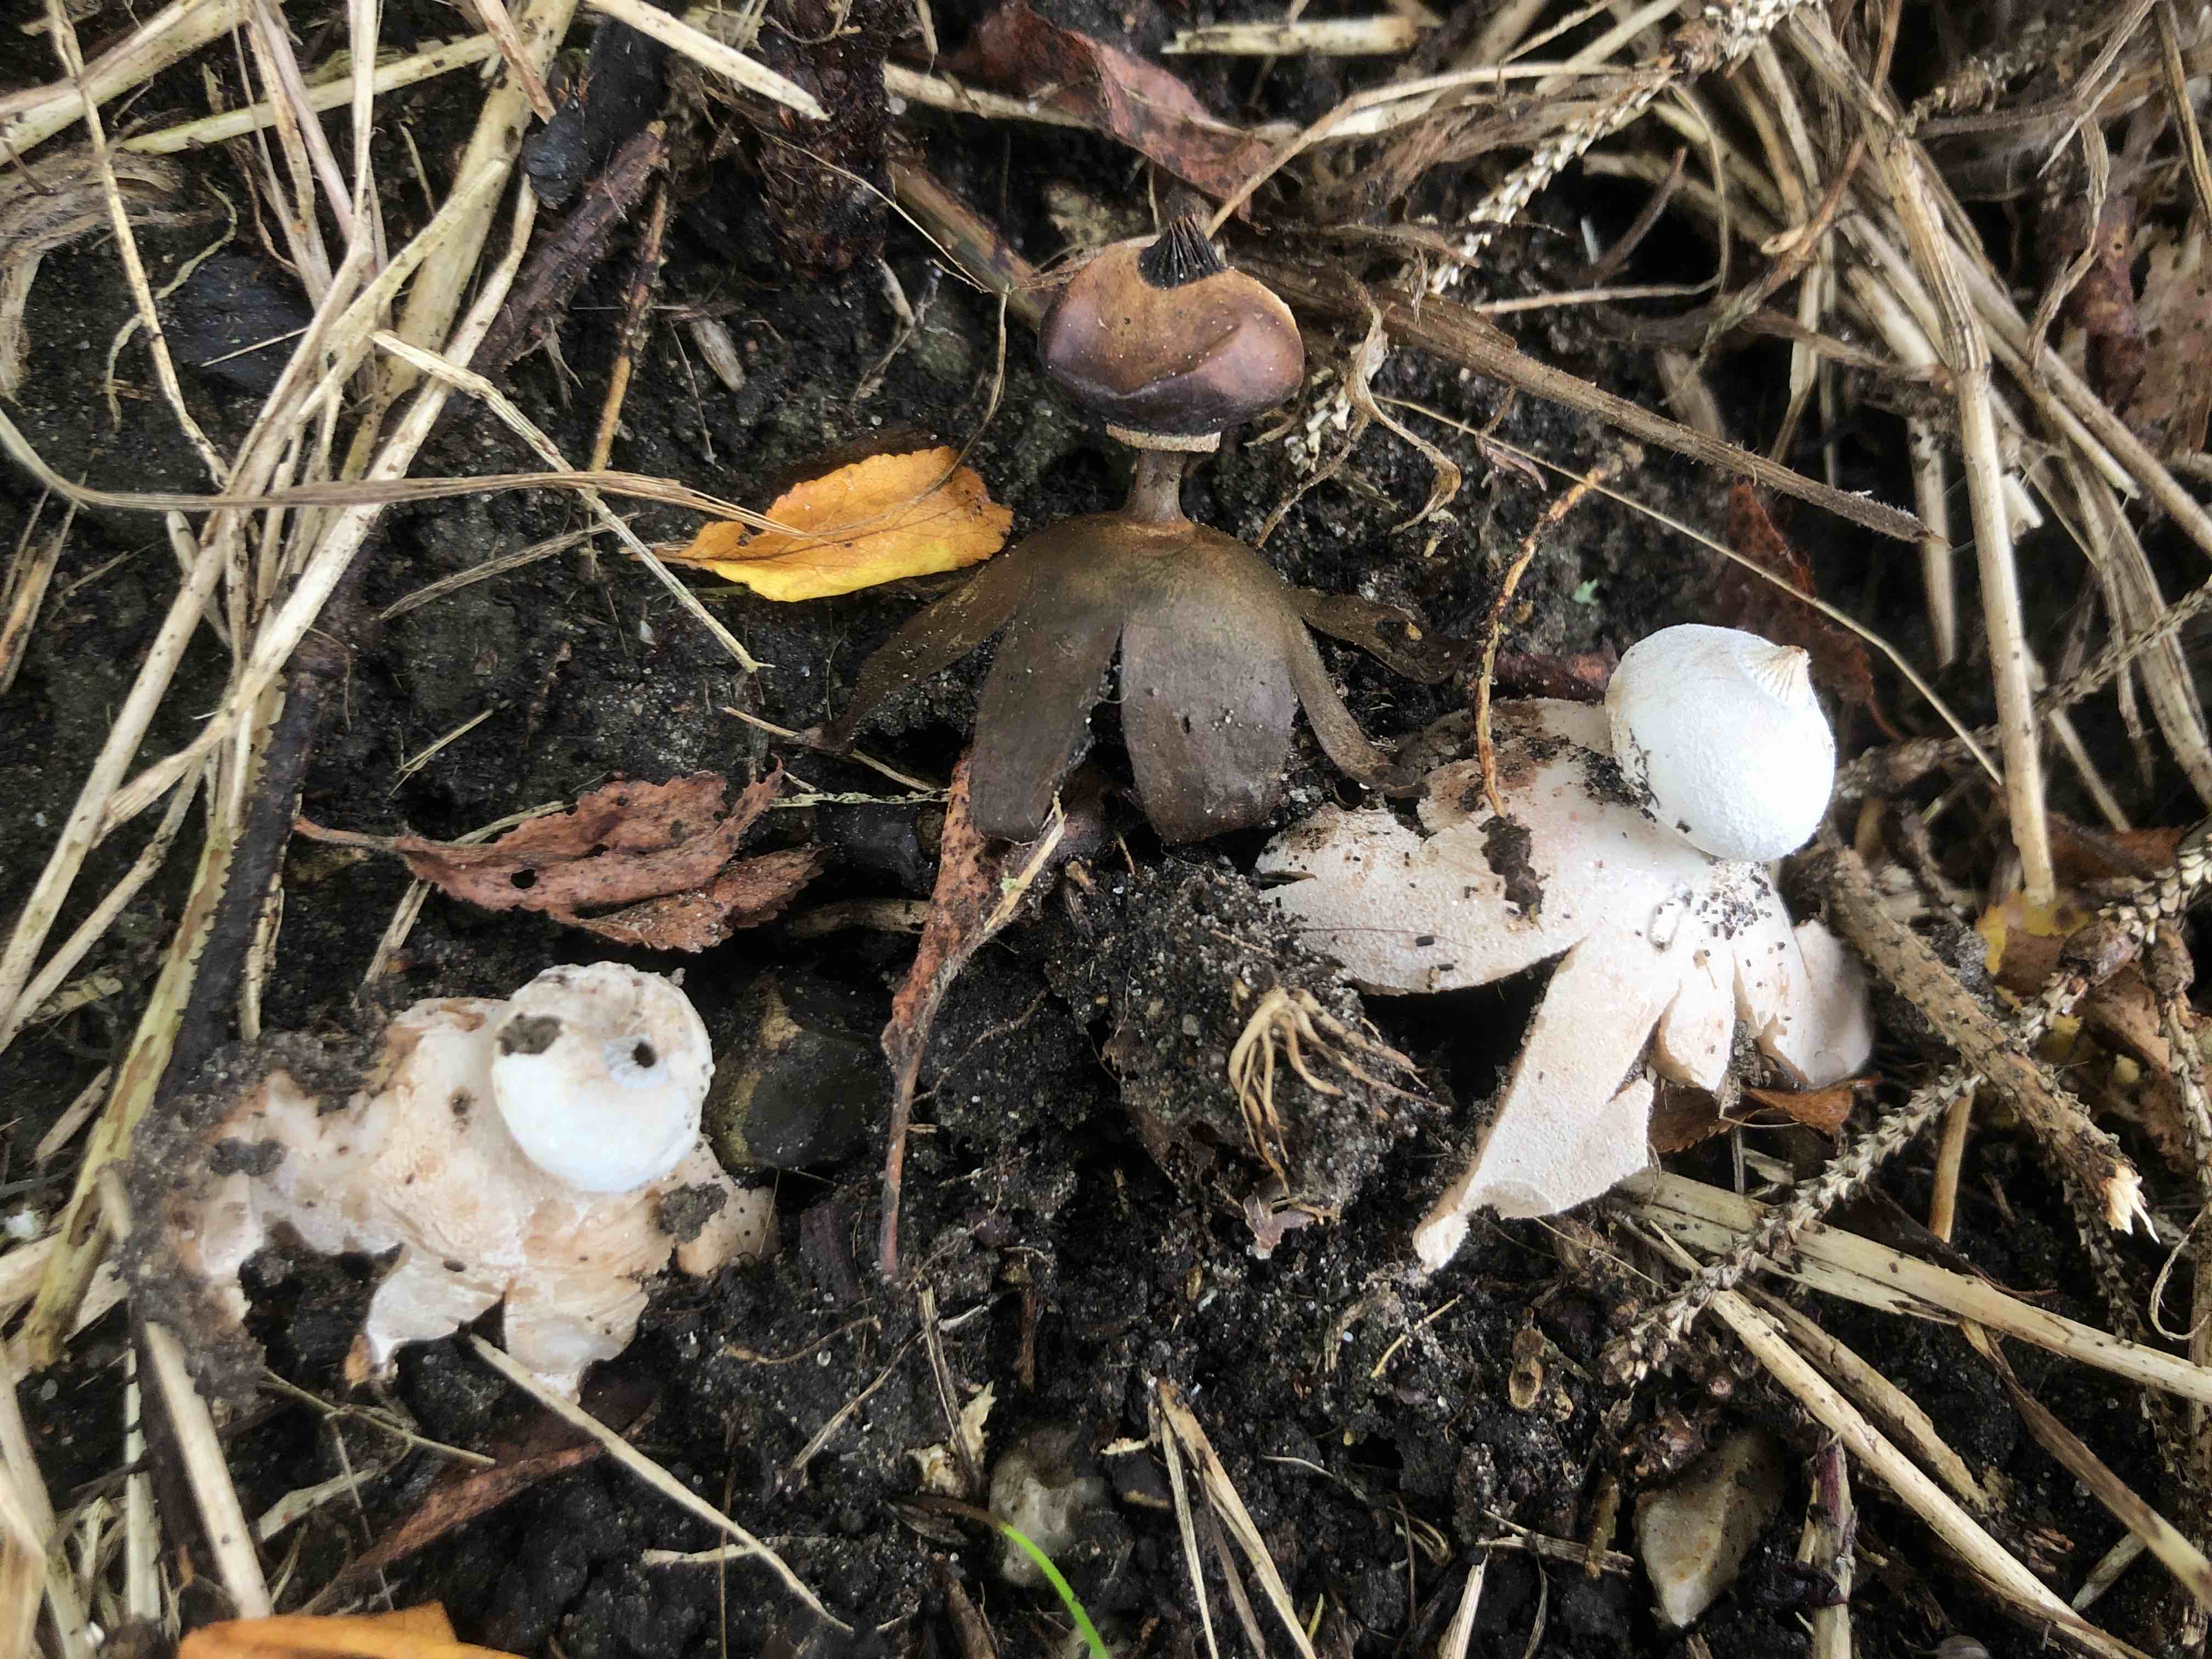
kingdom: Fungi
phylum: Basidiomycota
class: Agaricomycetes
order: Geastrales
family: Geastraceae
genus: Geastrum
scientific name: Geastrum striatum
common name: krave-stjernebold
